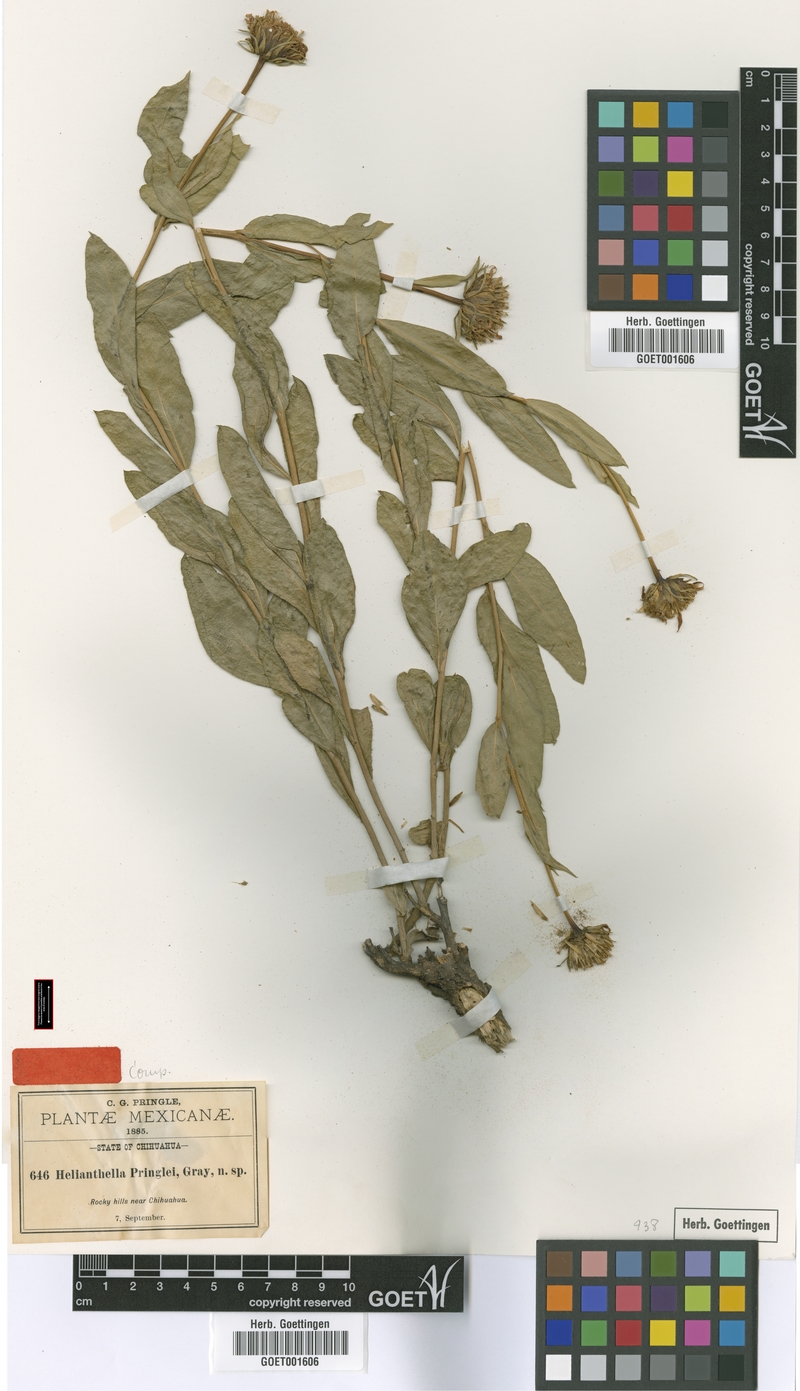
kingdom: Plantae
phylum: Tracheophyta
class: Magnoliopsida
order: Asterales
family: Asteraceae
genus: Flourensia
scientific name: Flourensia pringlei
